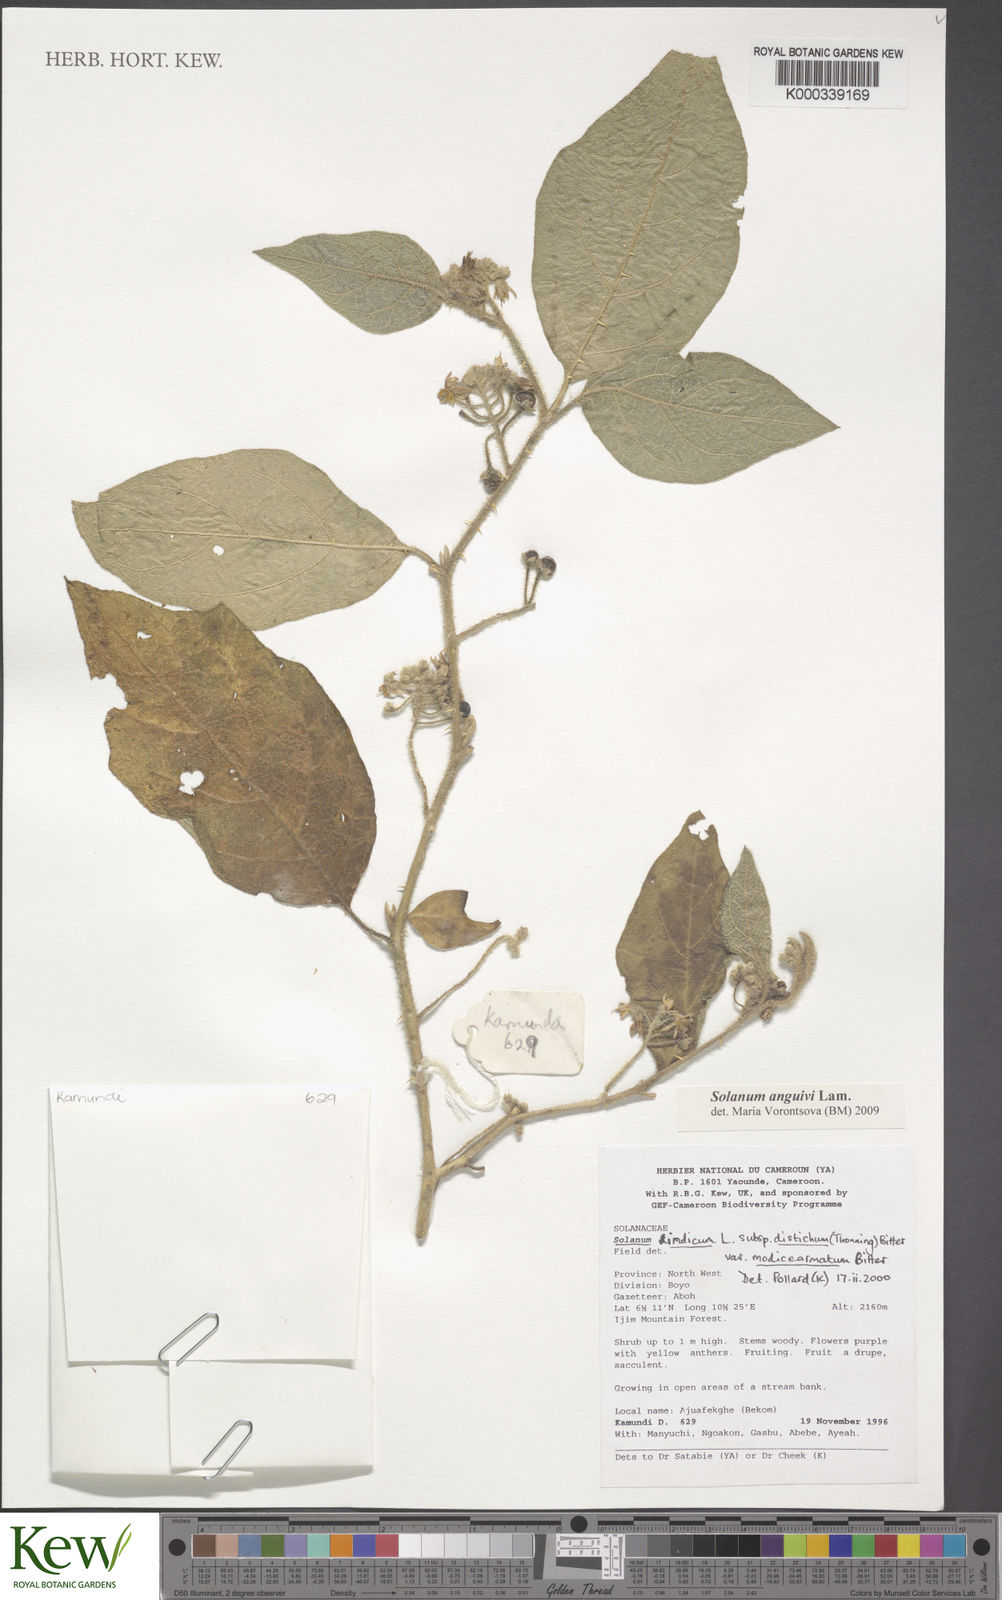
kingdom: Plantae
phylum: Tracheophyta
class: Magnoliopsida
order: Solanales
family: Solanaceae
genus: Solanum
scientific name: Solanum violaceum
